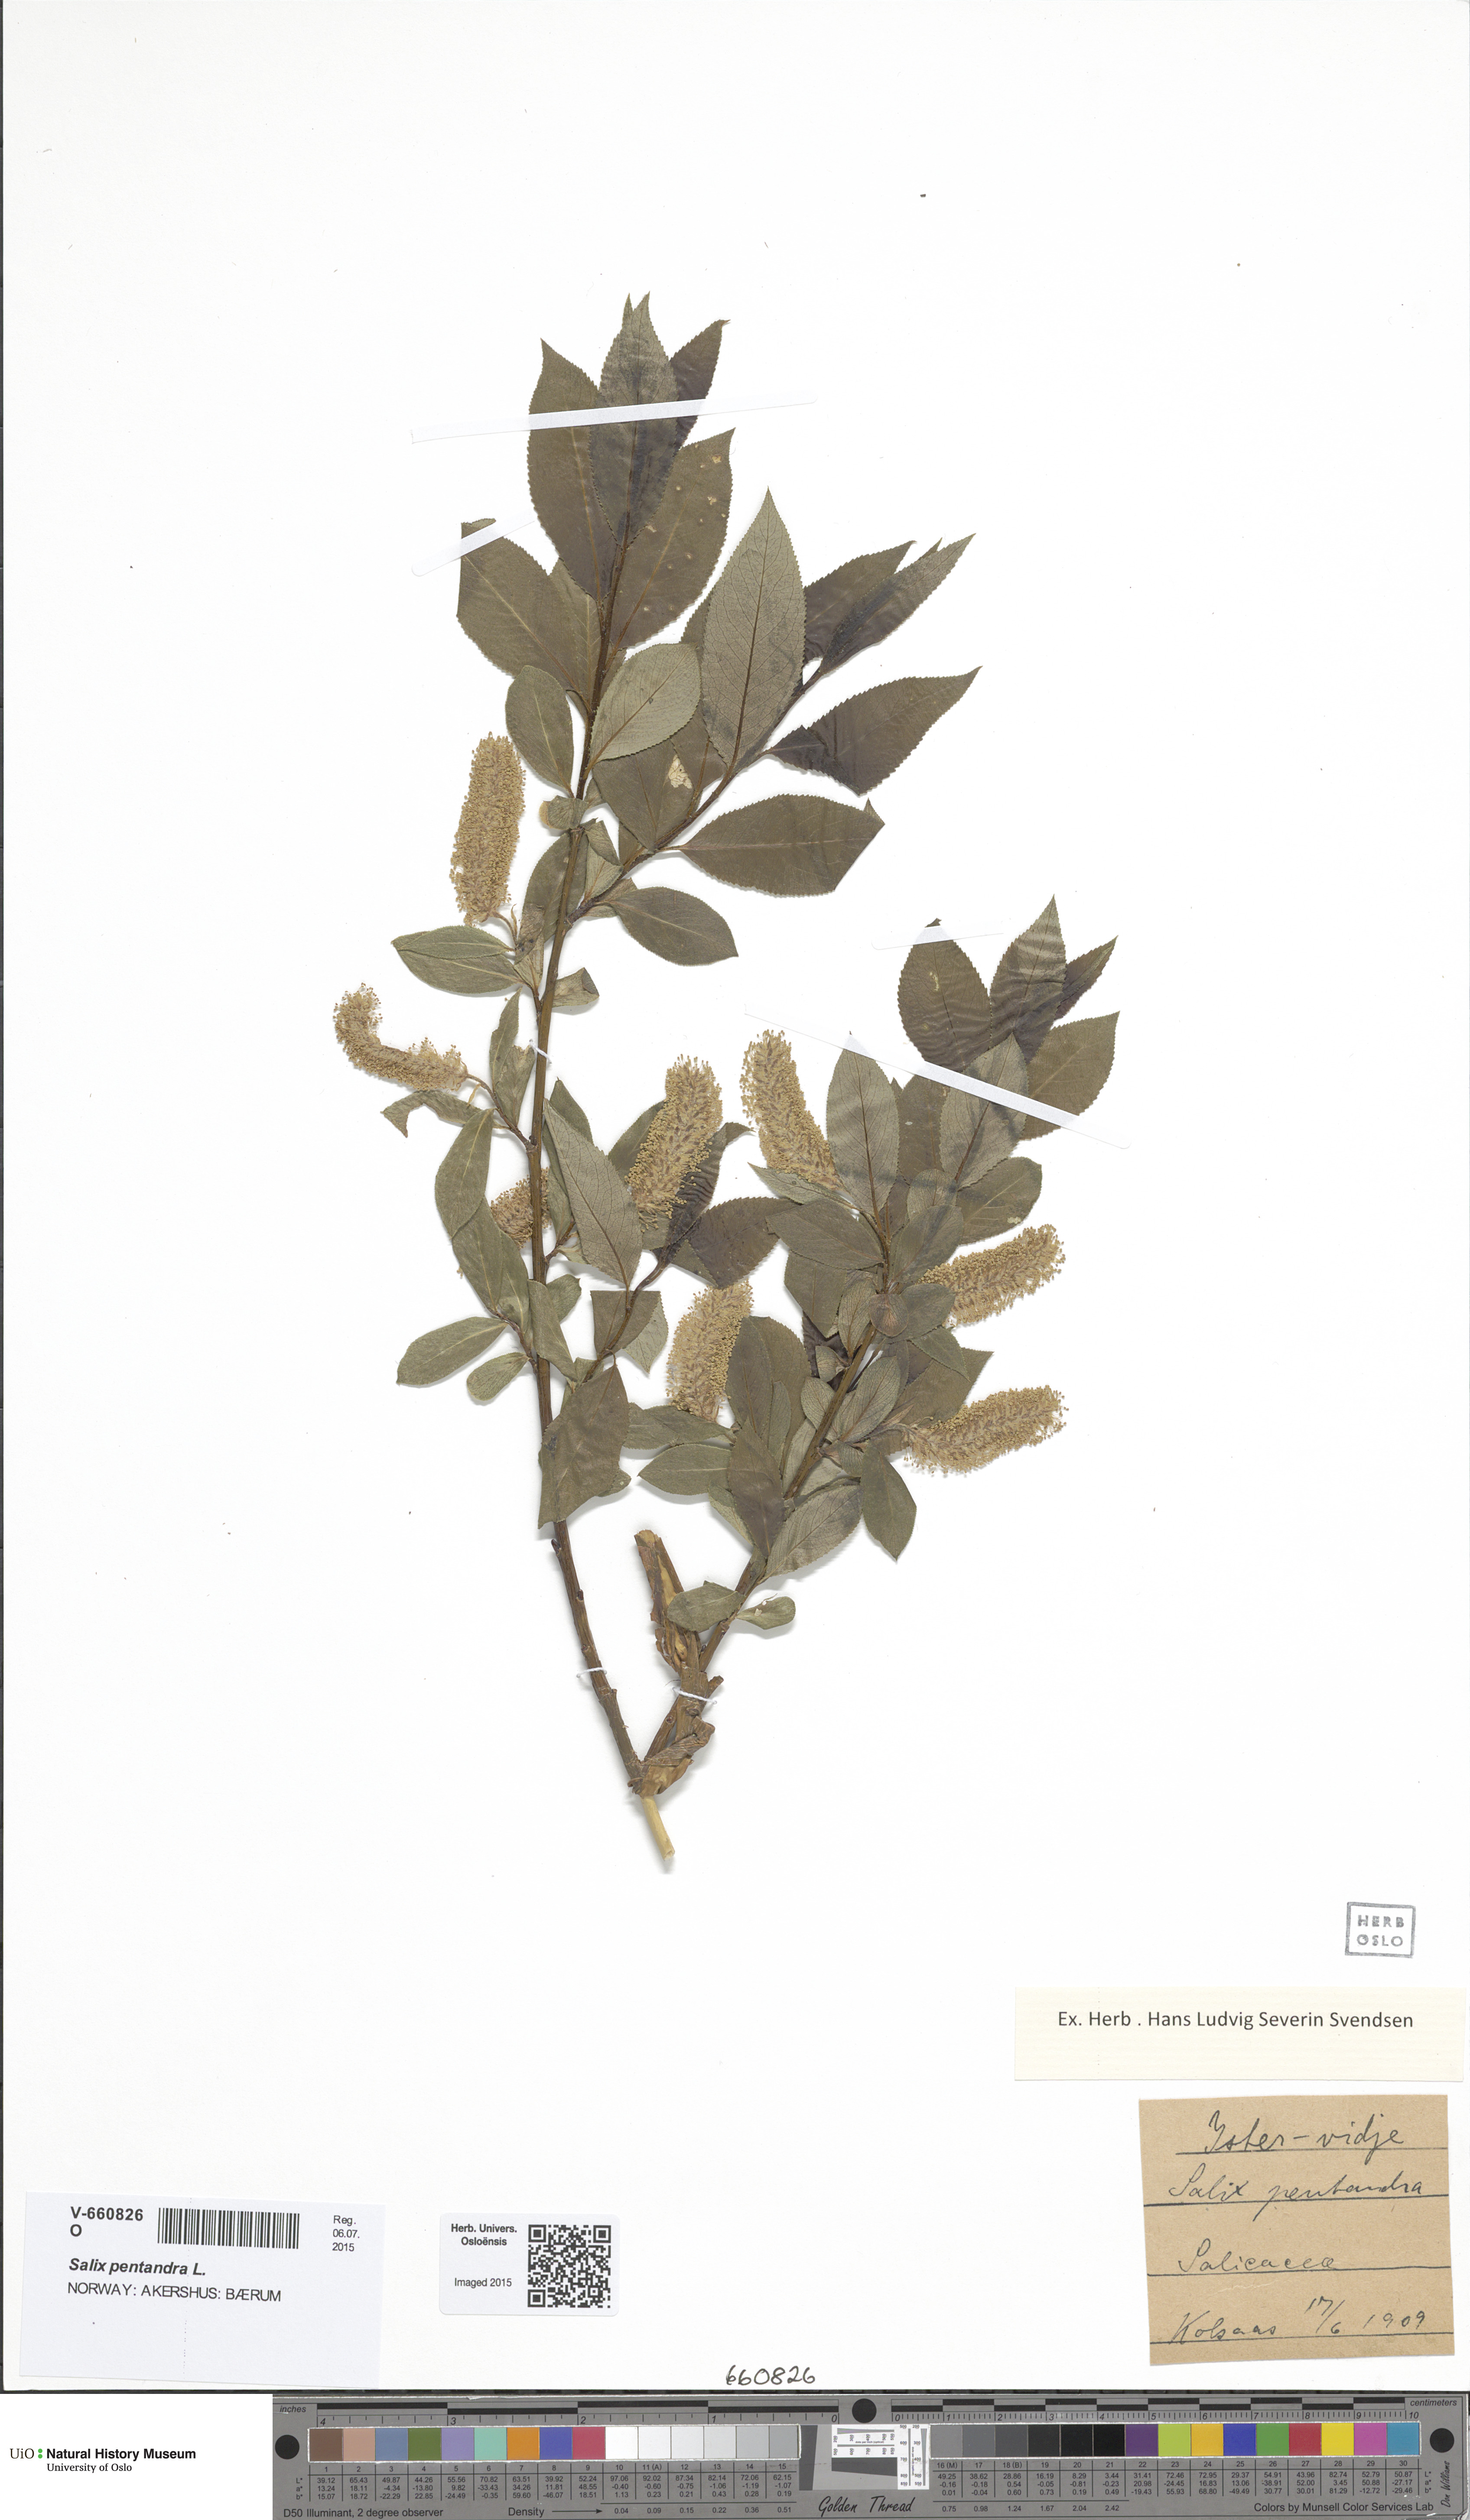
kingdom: Plantae
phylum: Tracheophyta
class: Magnoliopsida
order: Malpighiales
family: Salicaceae
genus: Salix
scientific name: Salix pentandra
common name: Bay willow
